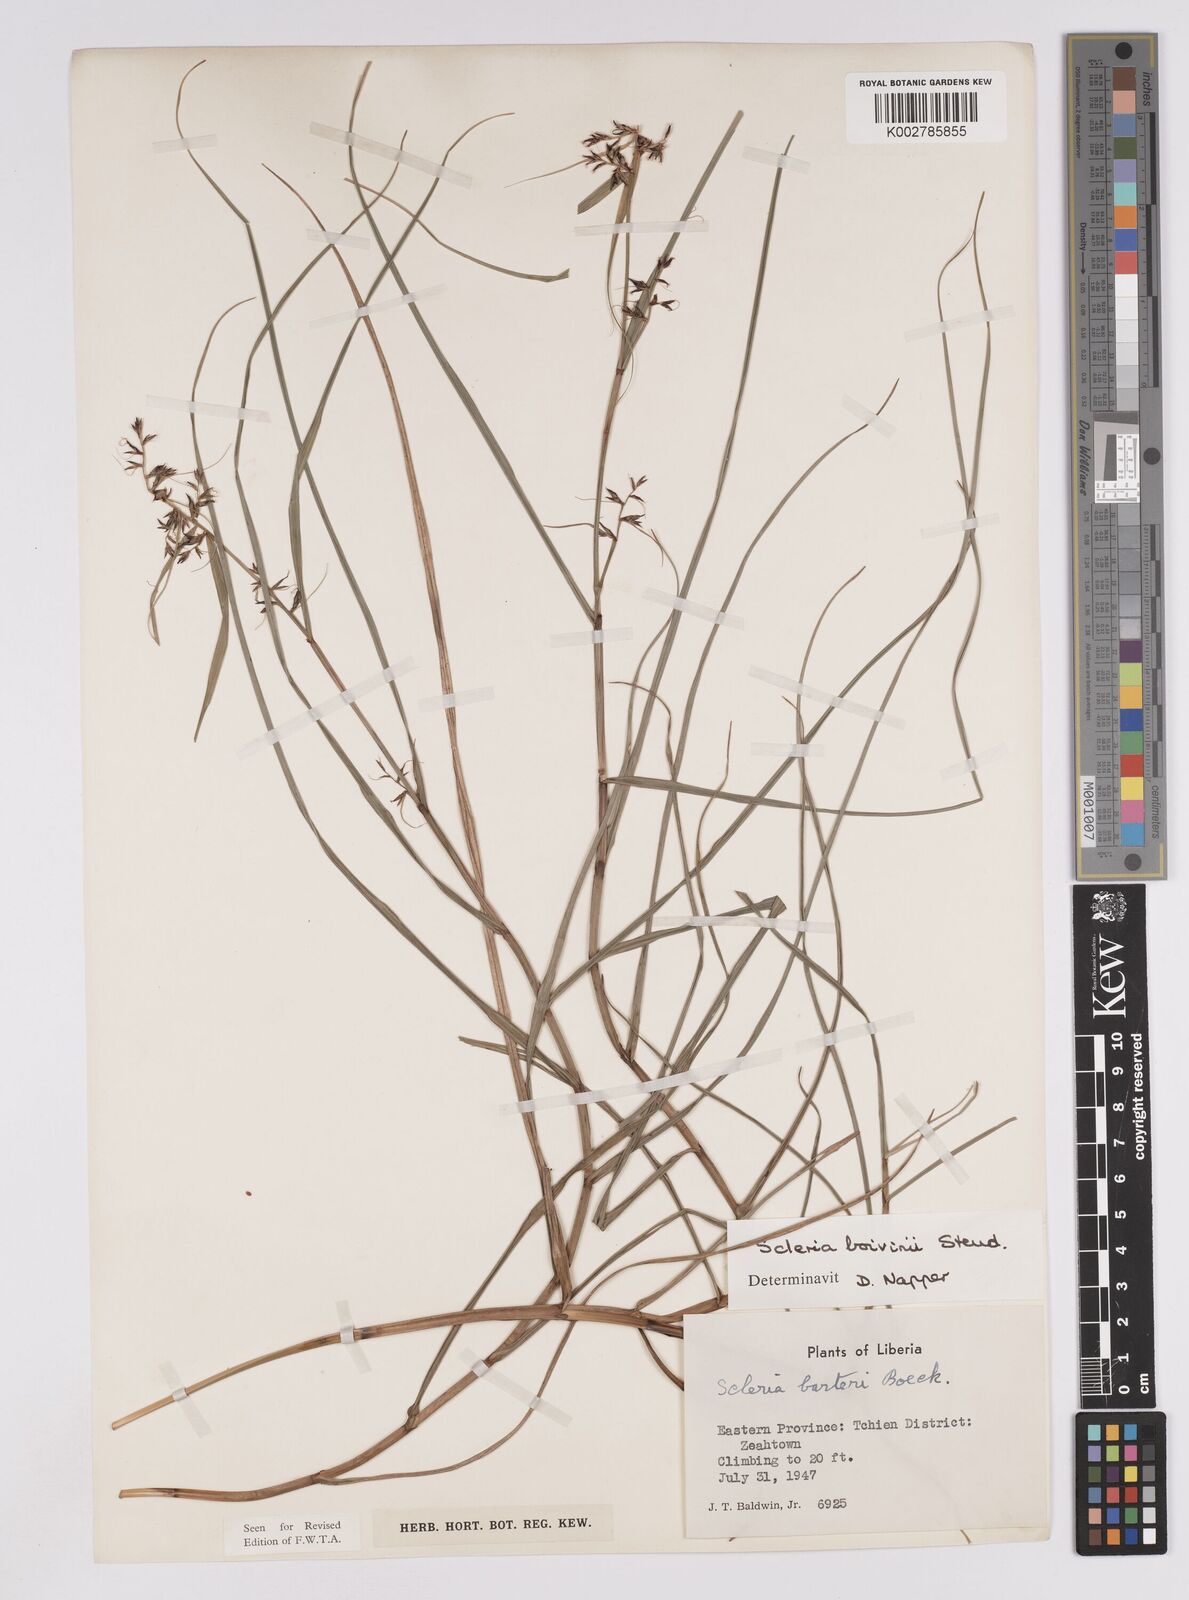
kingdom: Plantae
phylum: Tracheophyta
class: Liliopsida
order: Poales
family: Cyperaceae
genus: Scleria
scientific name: Scleria boivinii
